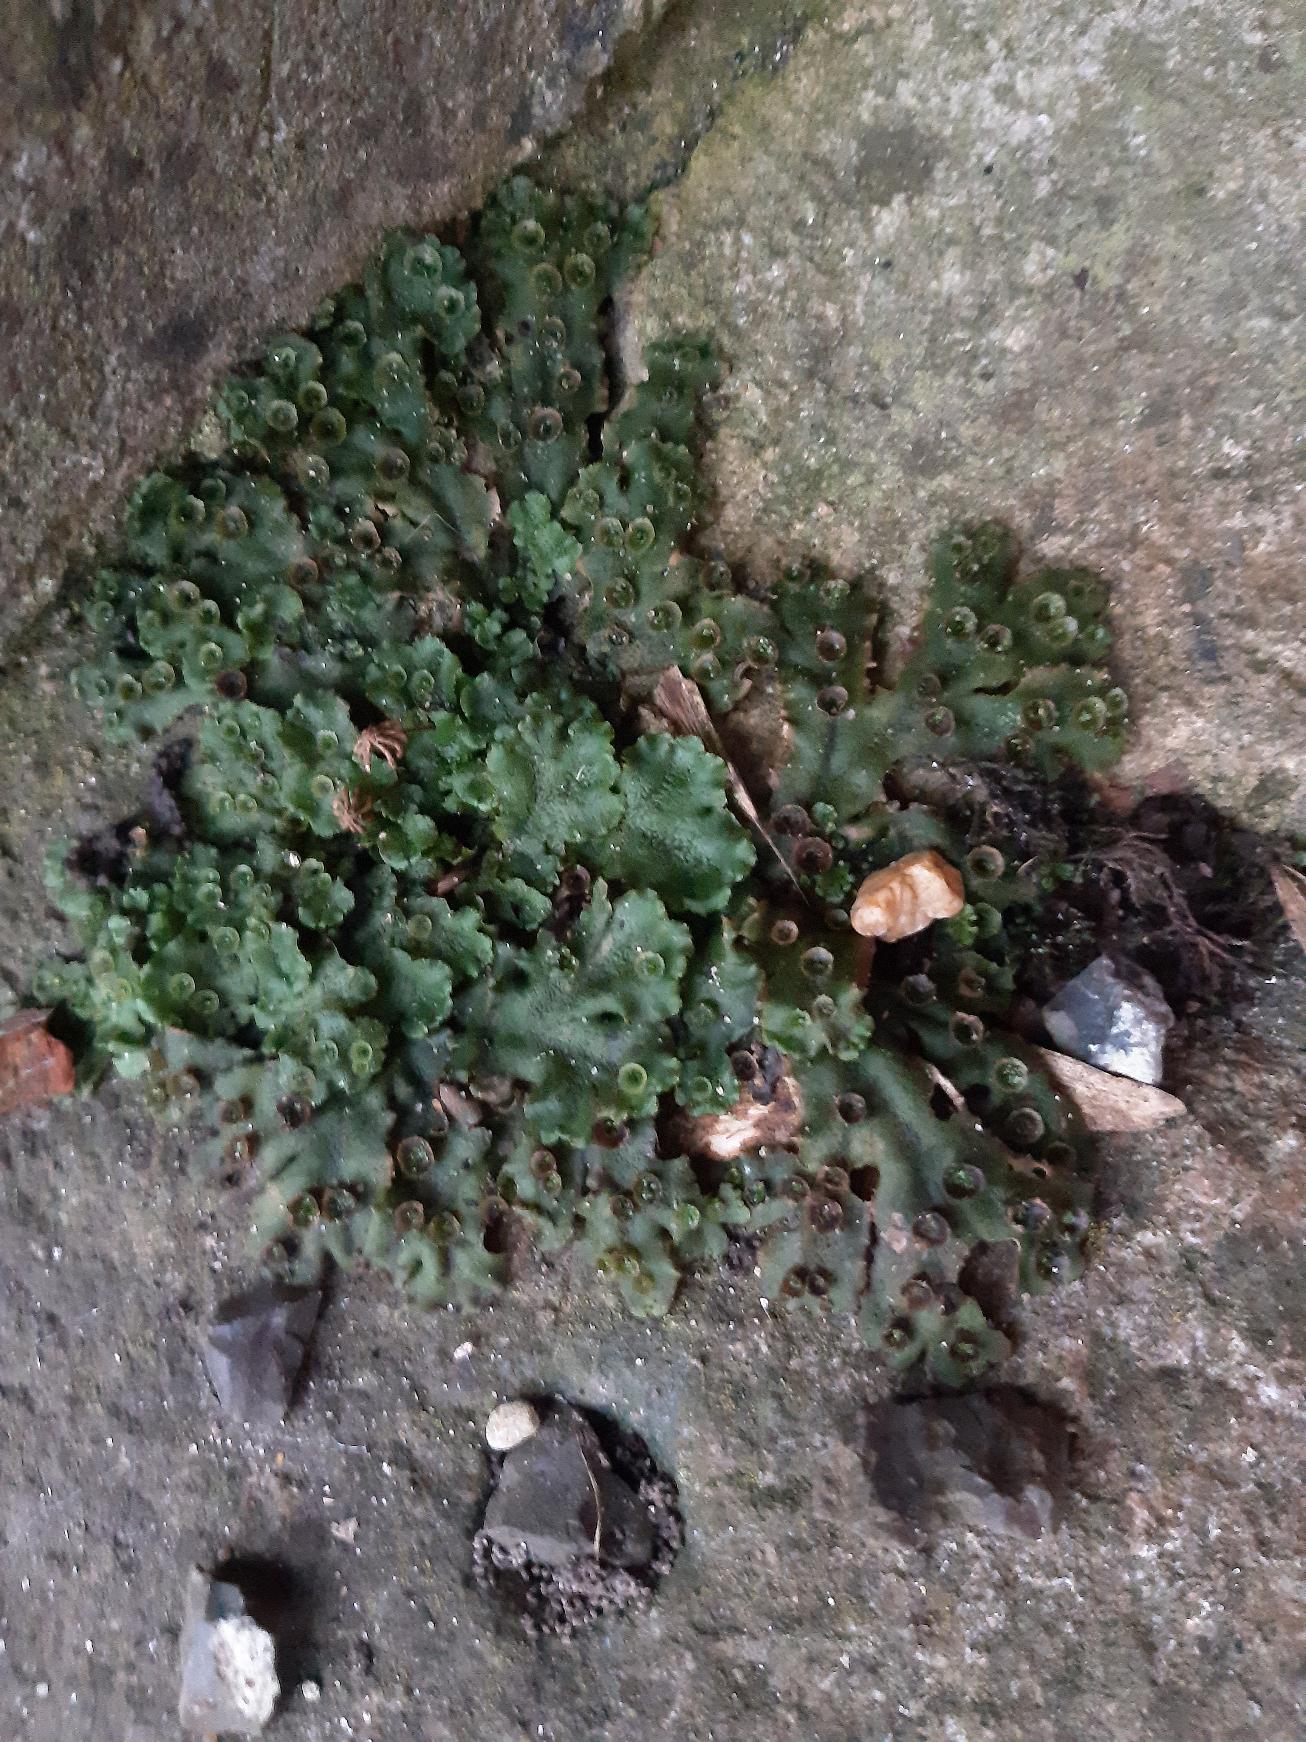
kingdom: Plantae
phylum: Marchantiophyta
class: Marchantiopsida
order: Marchantiales
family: Marchantiaceae
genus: Marchantia
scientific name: Marchantia polymorpha
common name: Almindelig lungemos (underart)
